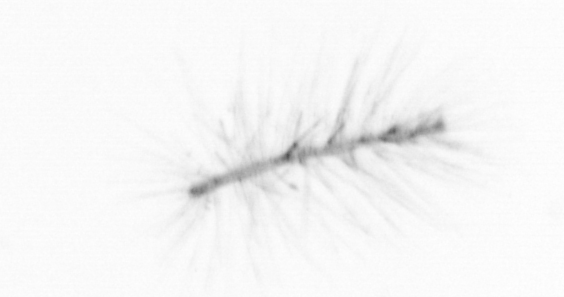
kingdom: Chromista
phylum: Ochrophyta
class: Bacillariophyceae
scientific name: Bacillariophyceae
